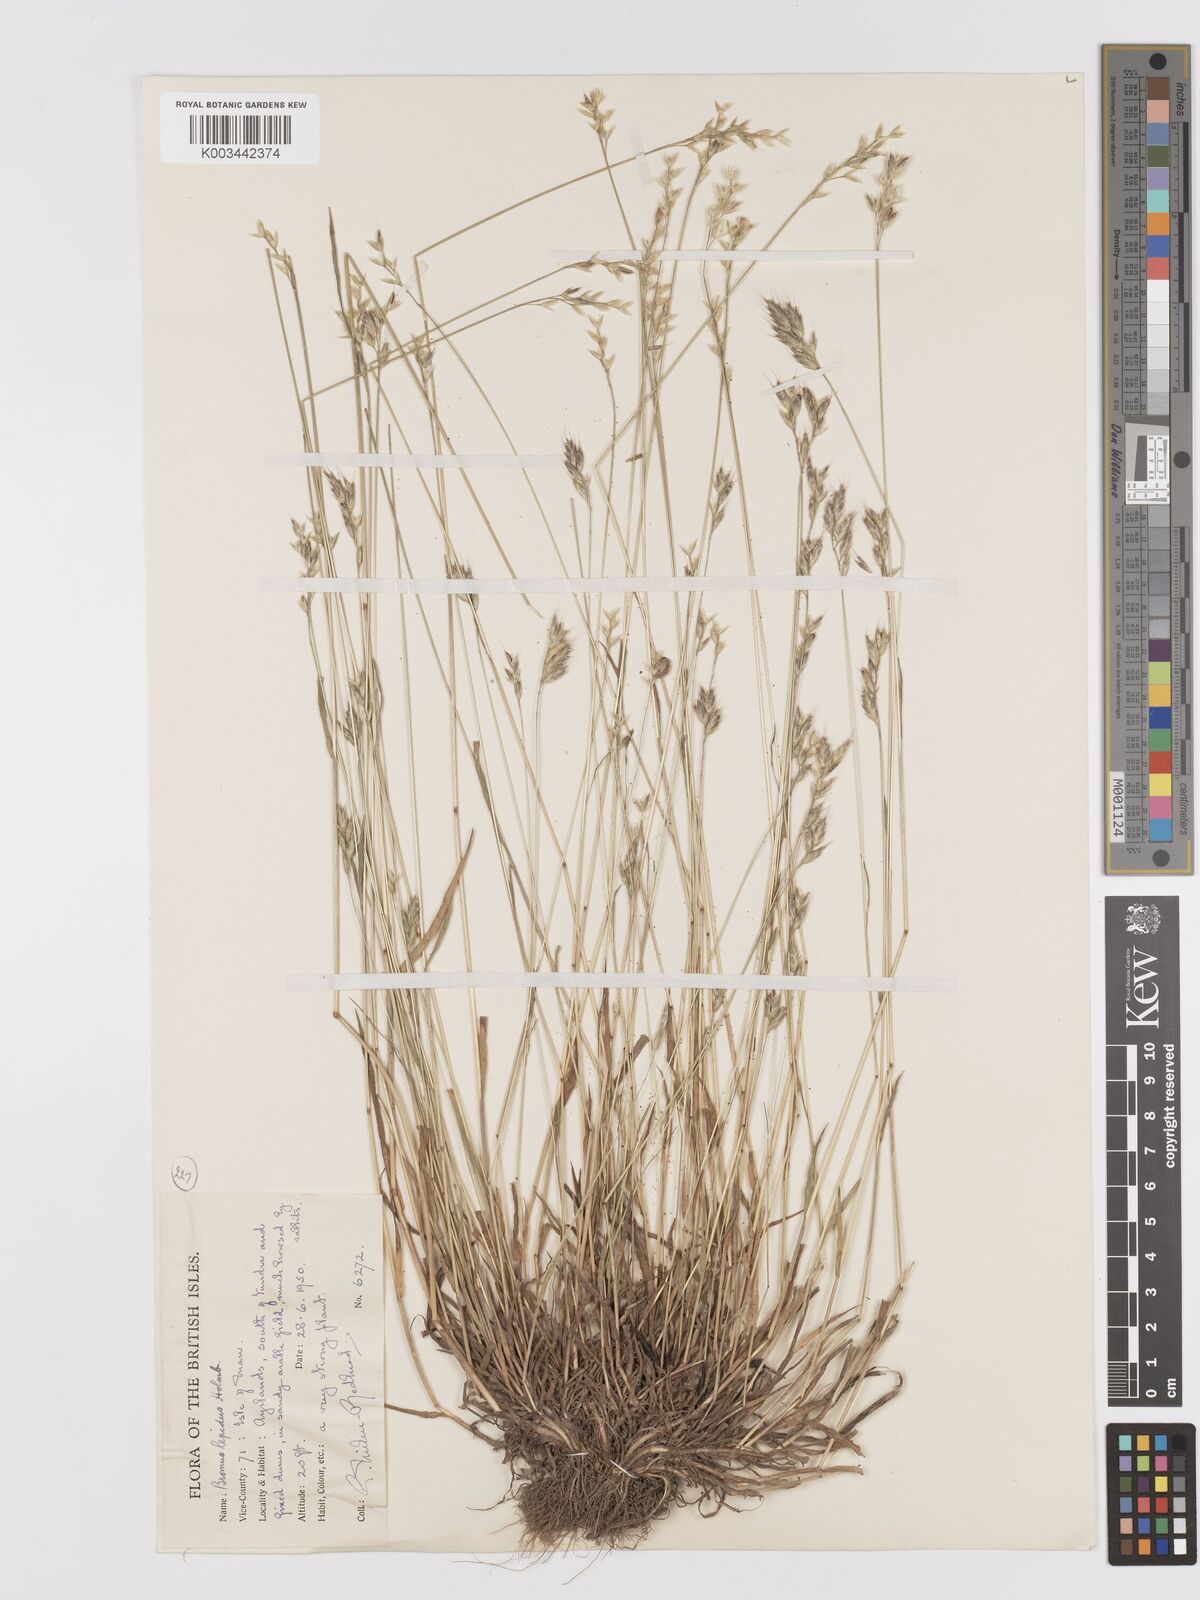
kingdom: Plantae
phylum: Tracheophyta
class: Liliopsida
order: Poales
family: Poaceae
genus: Bromus
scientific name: Bromus lepidus
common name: Slender soft-brome
